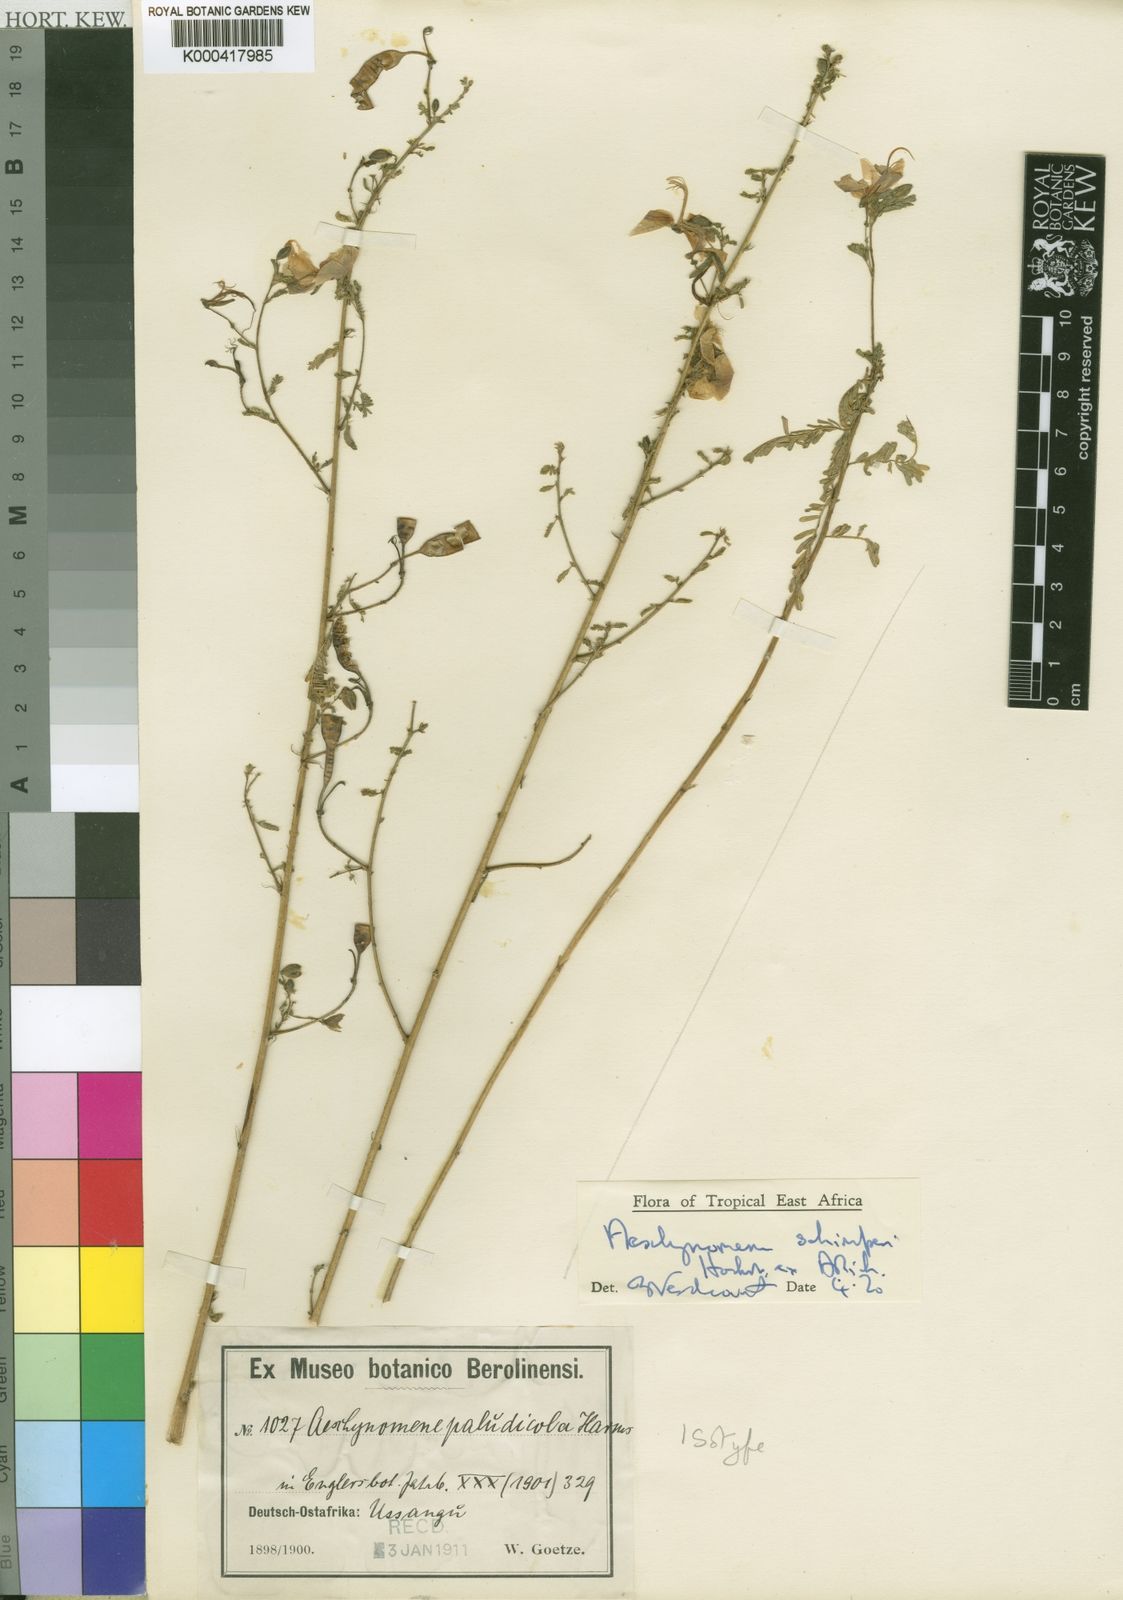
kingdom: Plantae
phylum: Tracheophyta
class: Magnoliopsida
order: Fabales
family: Fabaceae
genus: Aeschynomene
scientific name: Aeschynomene schimperi
